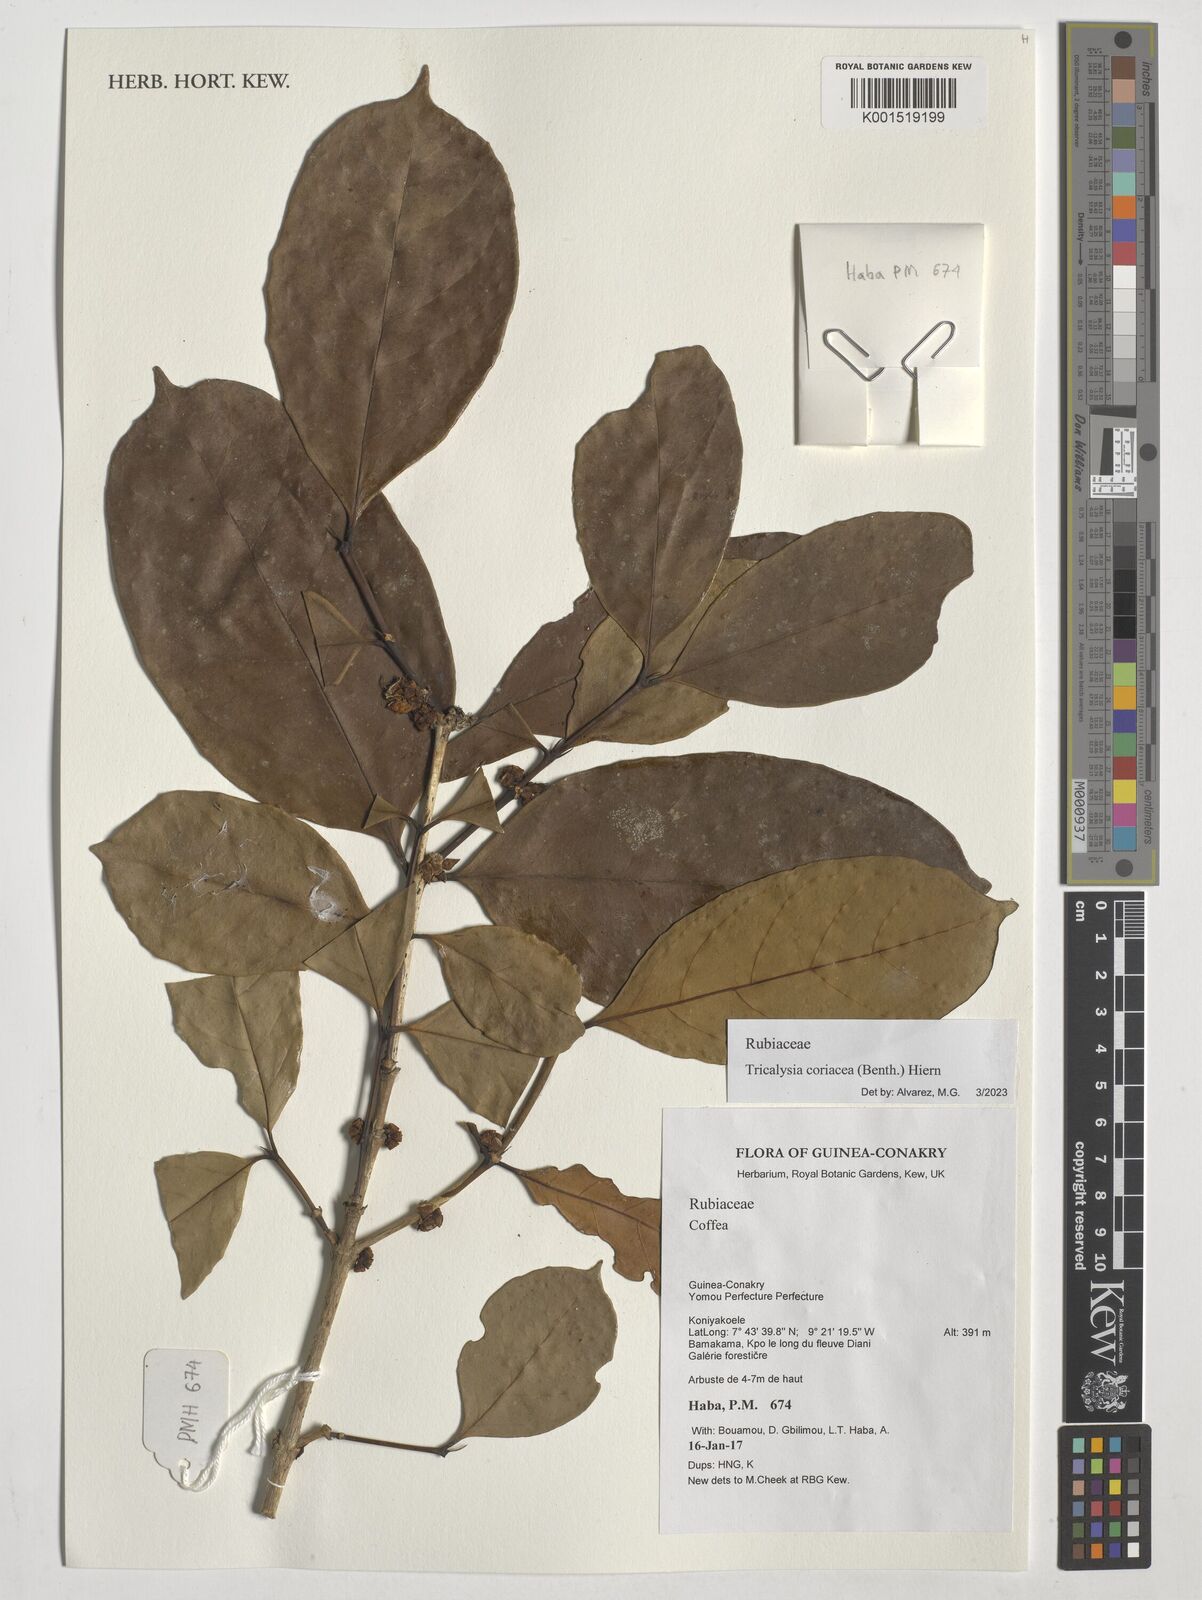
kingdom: Plantae
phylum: Tracheophyta
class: Magnoliopsida
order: Gentianales
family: Rubiaceae
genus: Tricalysia
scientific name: Tricalysia coriacea
